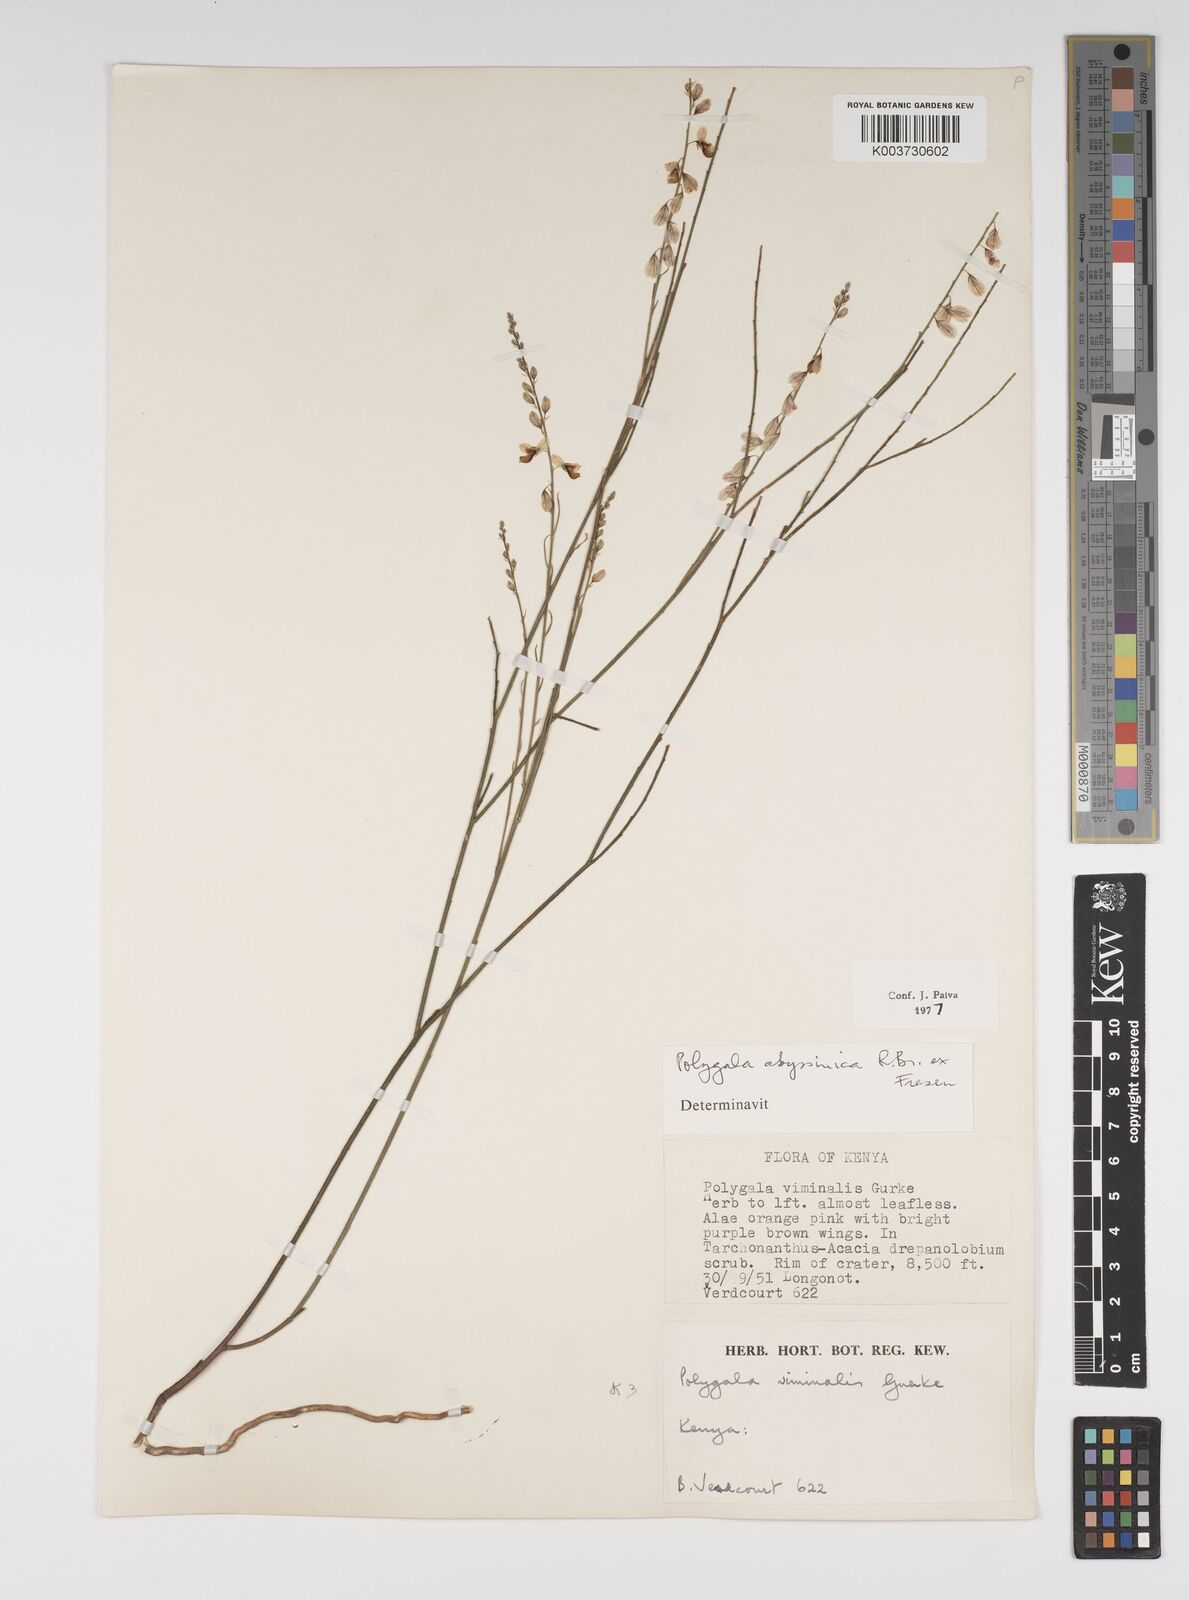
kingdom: Plantae
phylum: Tracheophyta
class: Magnoliopsida
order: Fabales
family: Polygalaceae
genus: Polygala
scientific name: Polygala abyssinica
